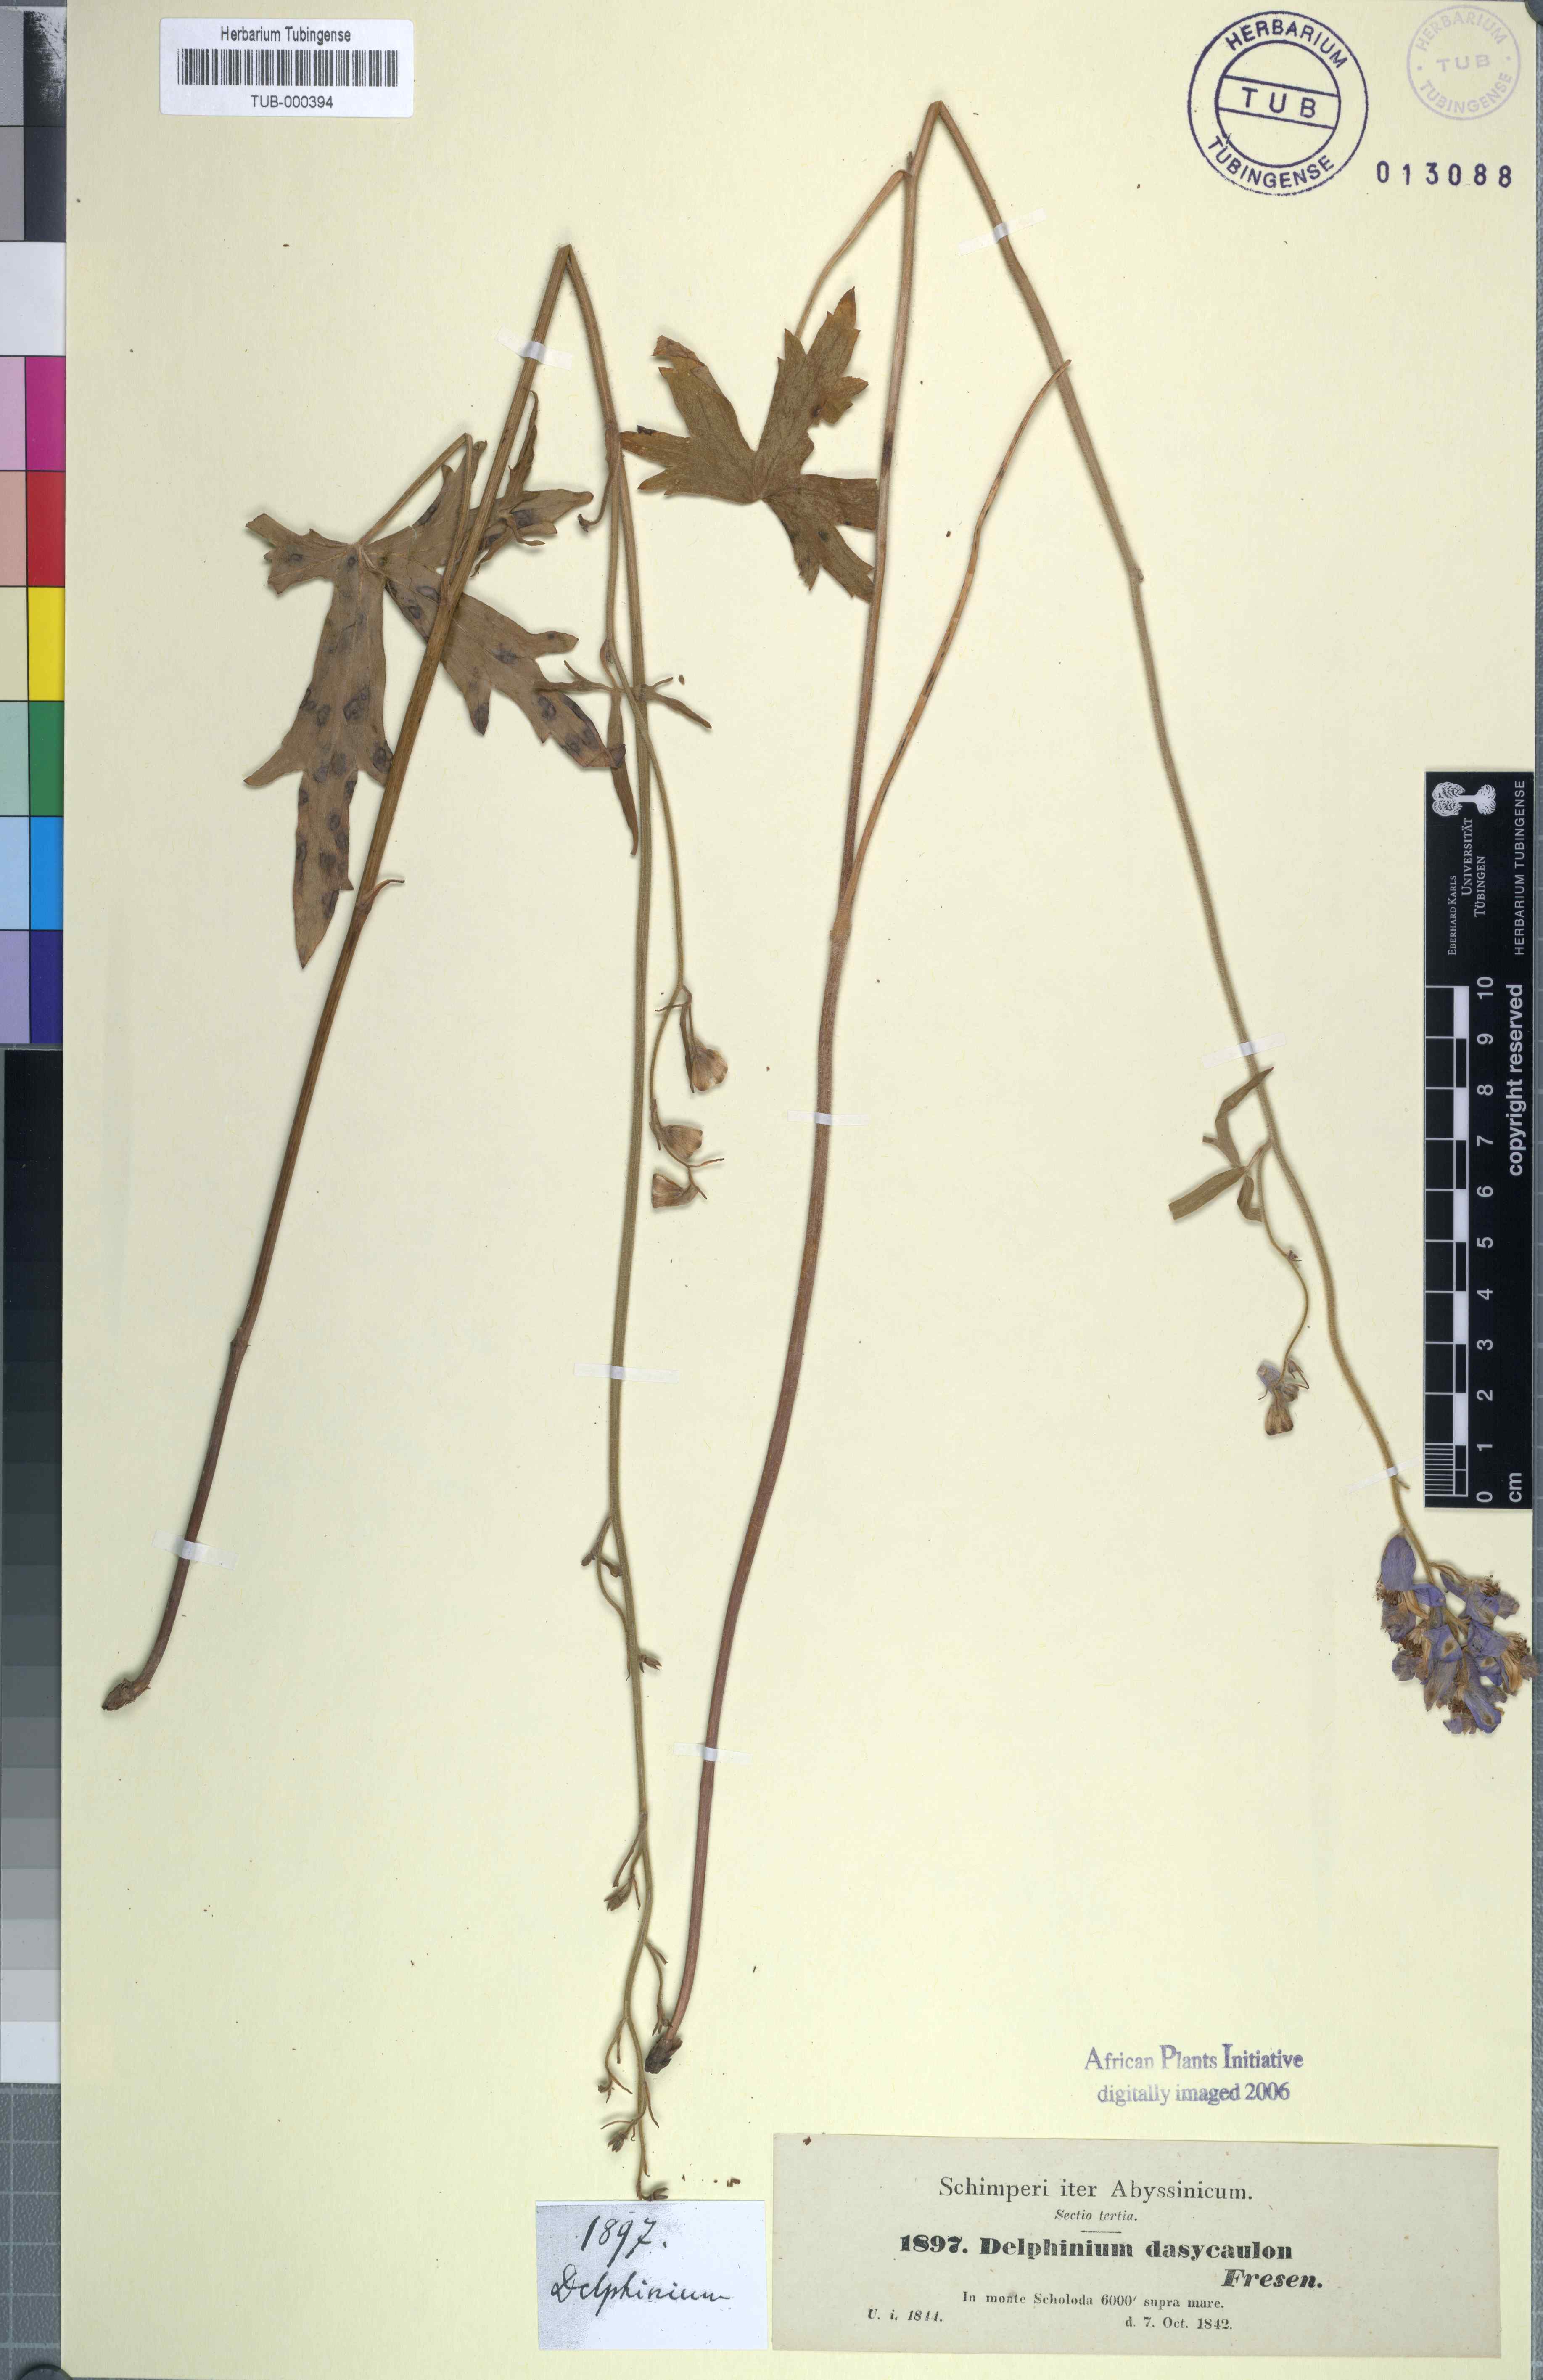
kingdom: Plantae
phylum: Tracheophyta
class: Magnoliopsida
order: Ranunculales
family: Ranunculaceae
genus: Delphinium
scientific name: Delphinium dasycaulon
